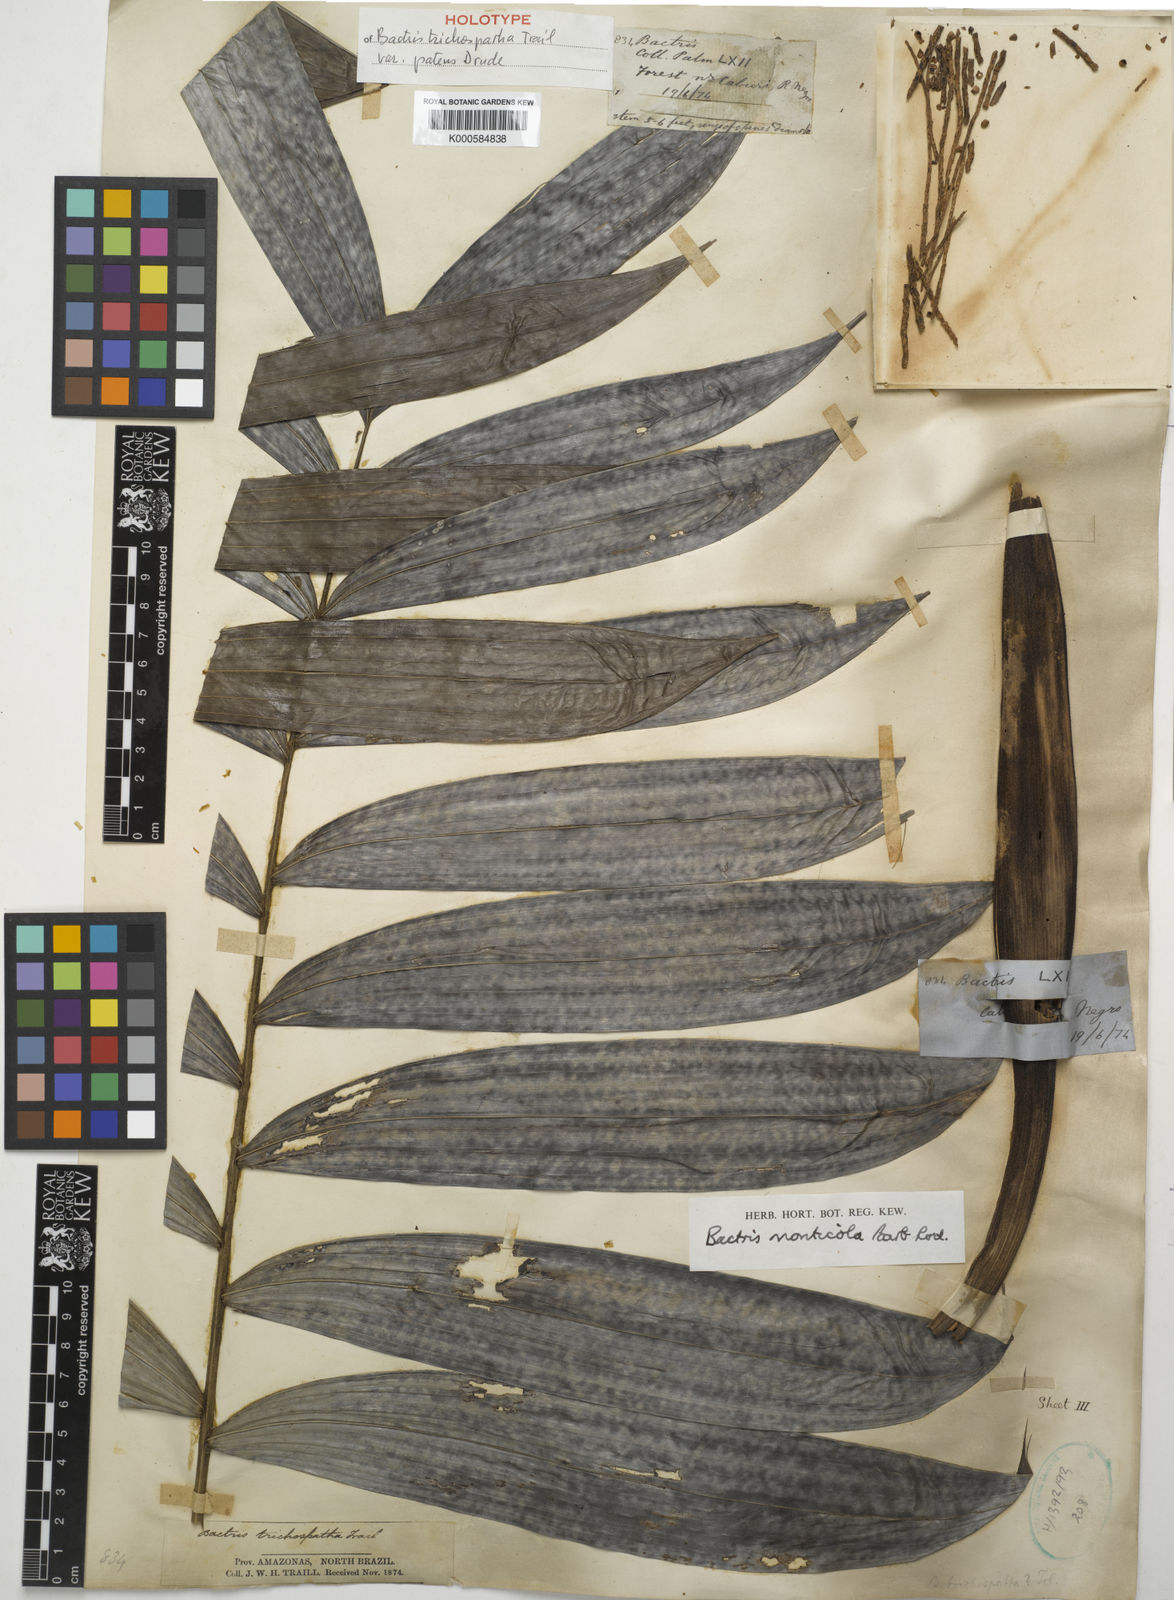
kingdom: Plantae
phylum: Tracheophyta
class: Liliopsida
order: Arecales
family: Arecaceae
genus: Bactris
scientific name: Bactris maraja
